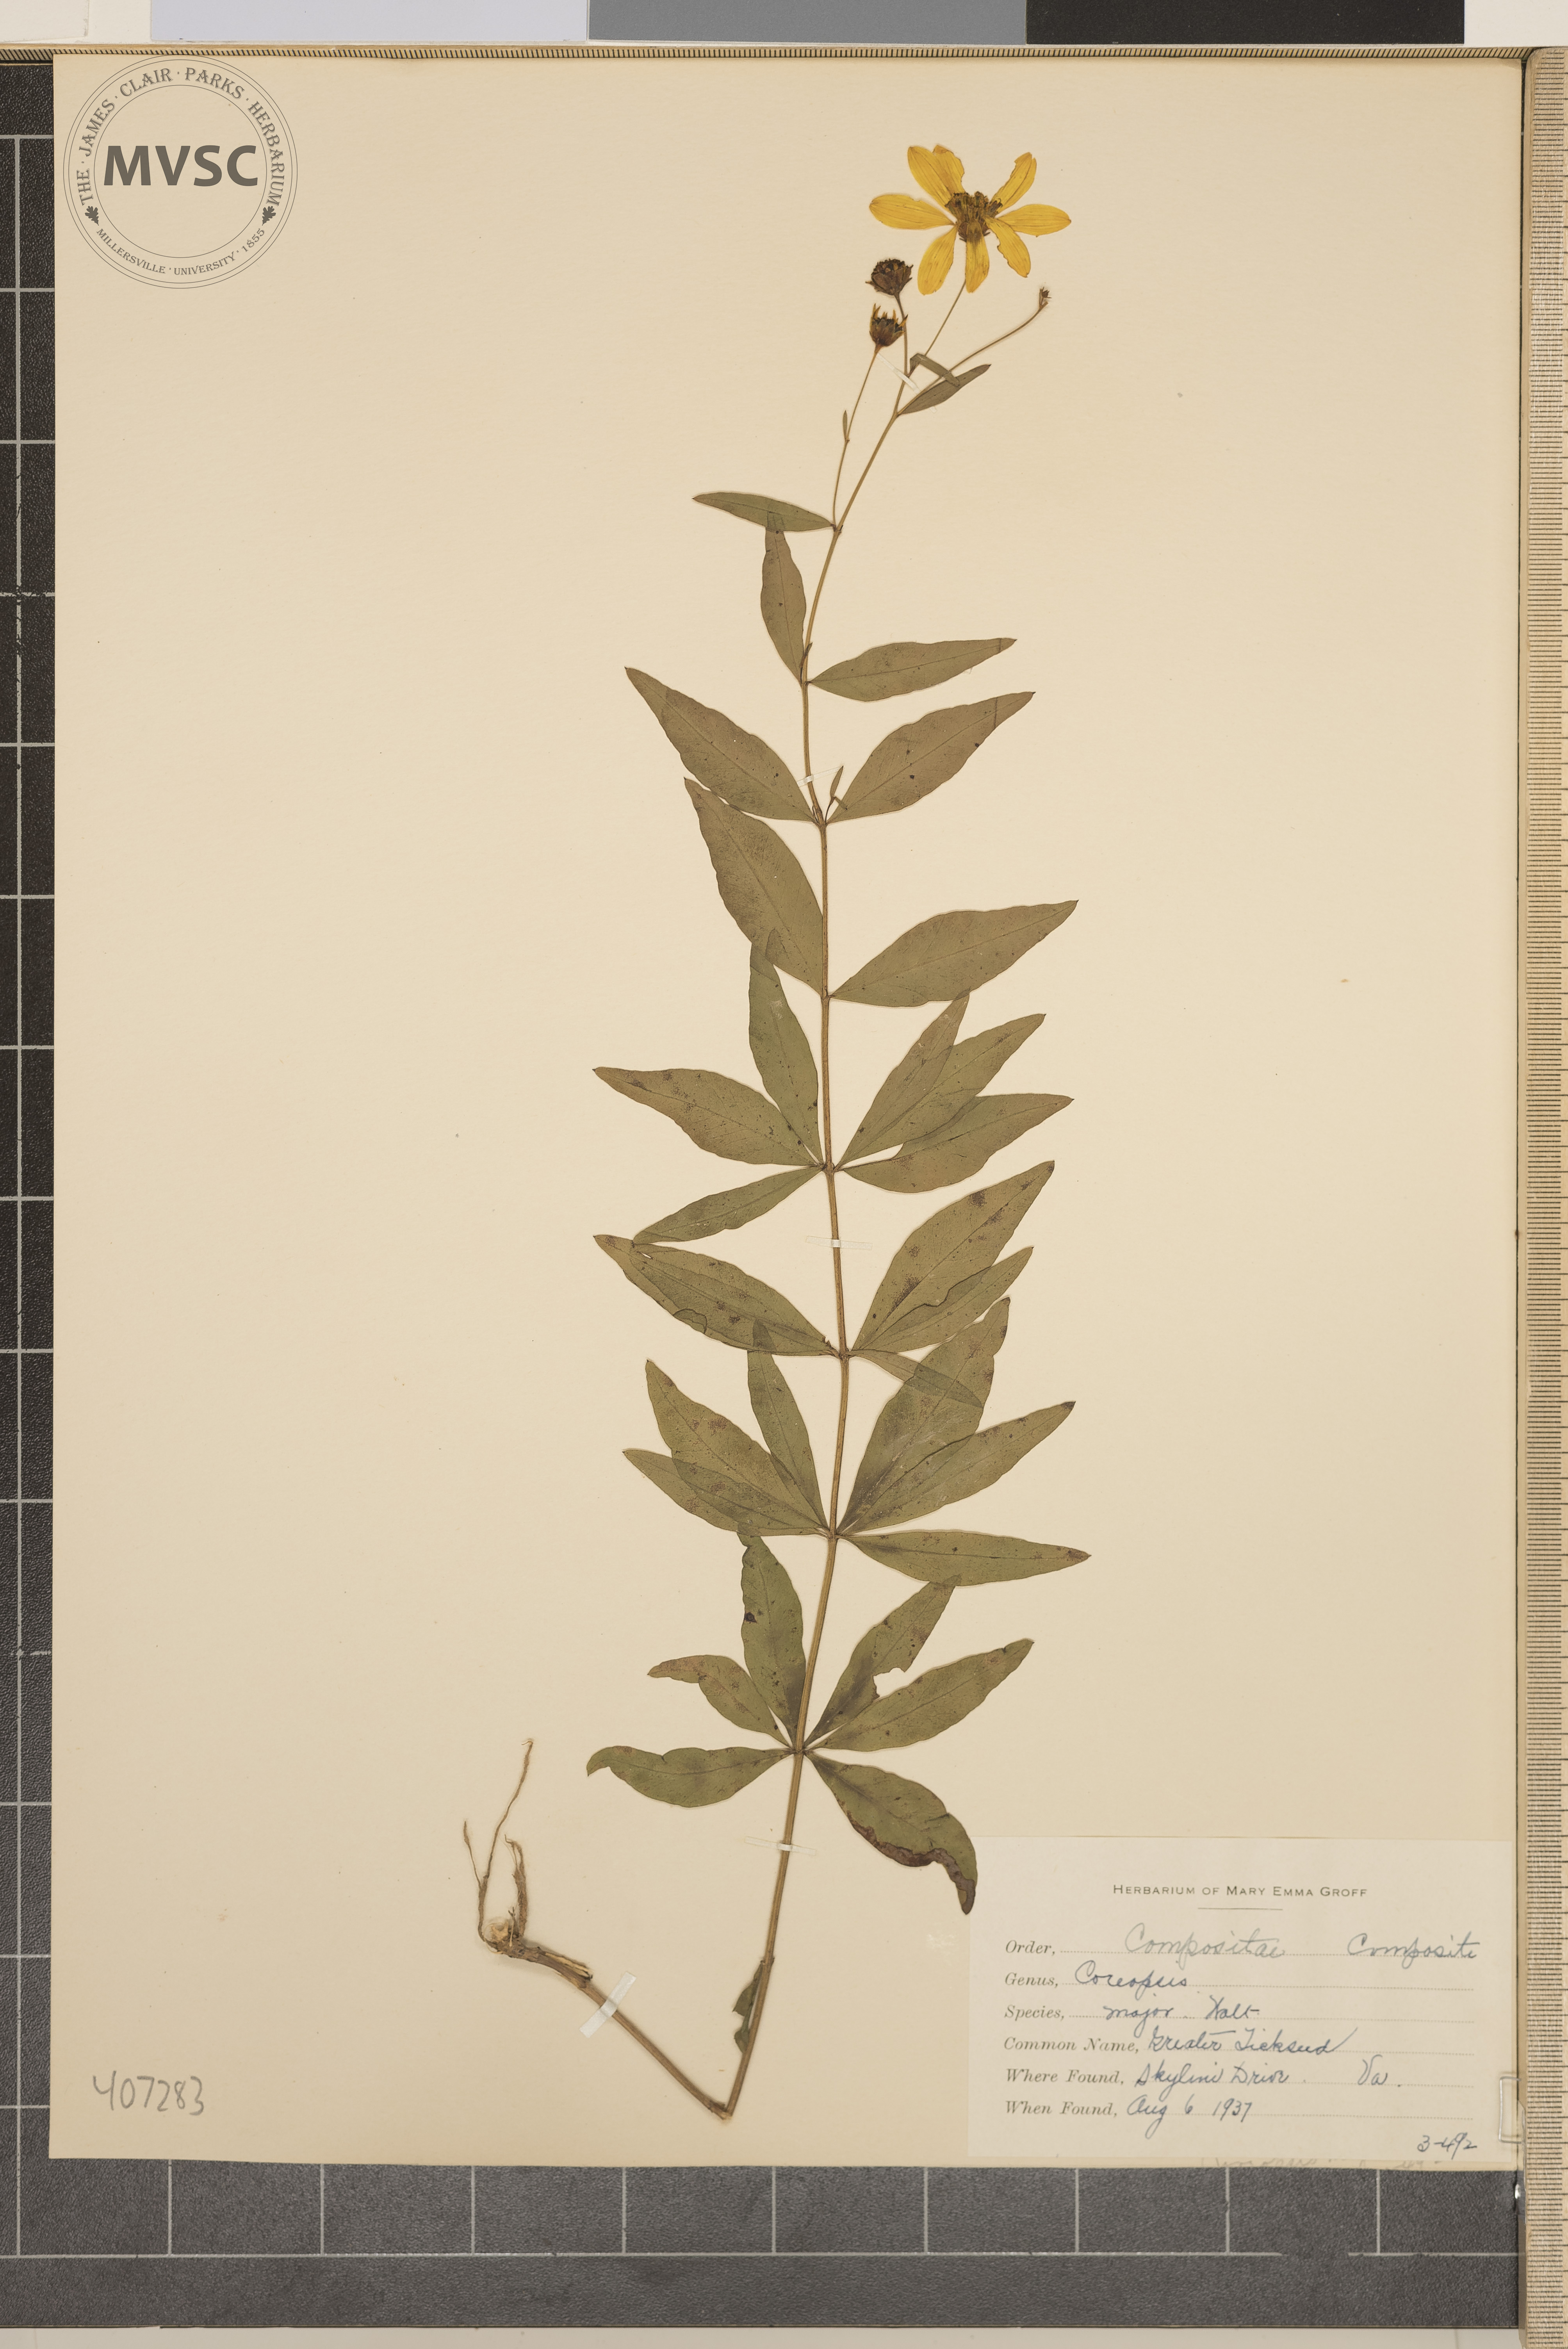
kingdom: Plantae
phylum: Tracheophyta
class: Magnoliopsida
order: Asterales
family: Asteraceae
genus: Coreopsis
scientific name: Coreopsis major
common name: Greater Tickseed
